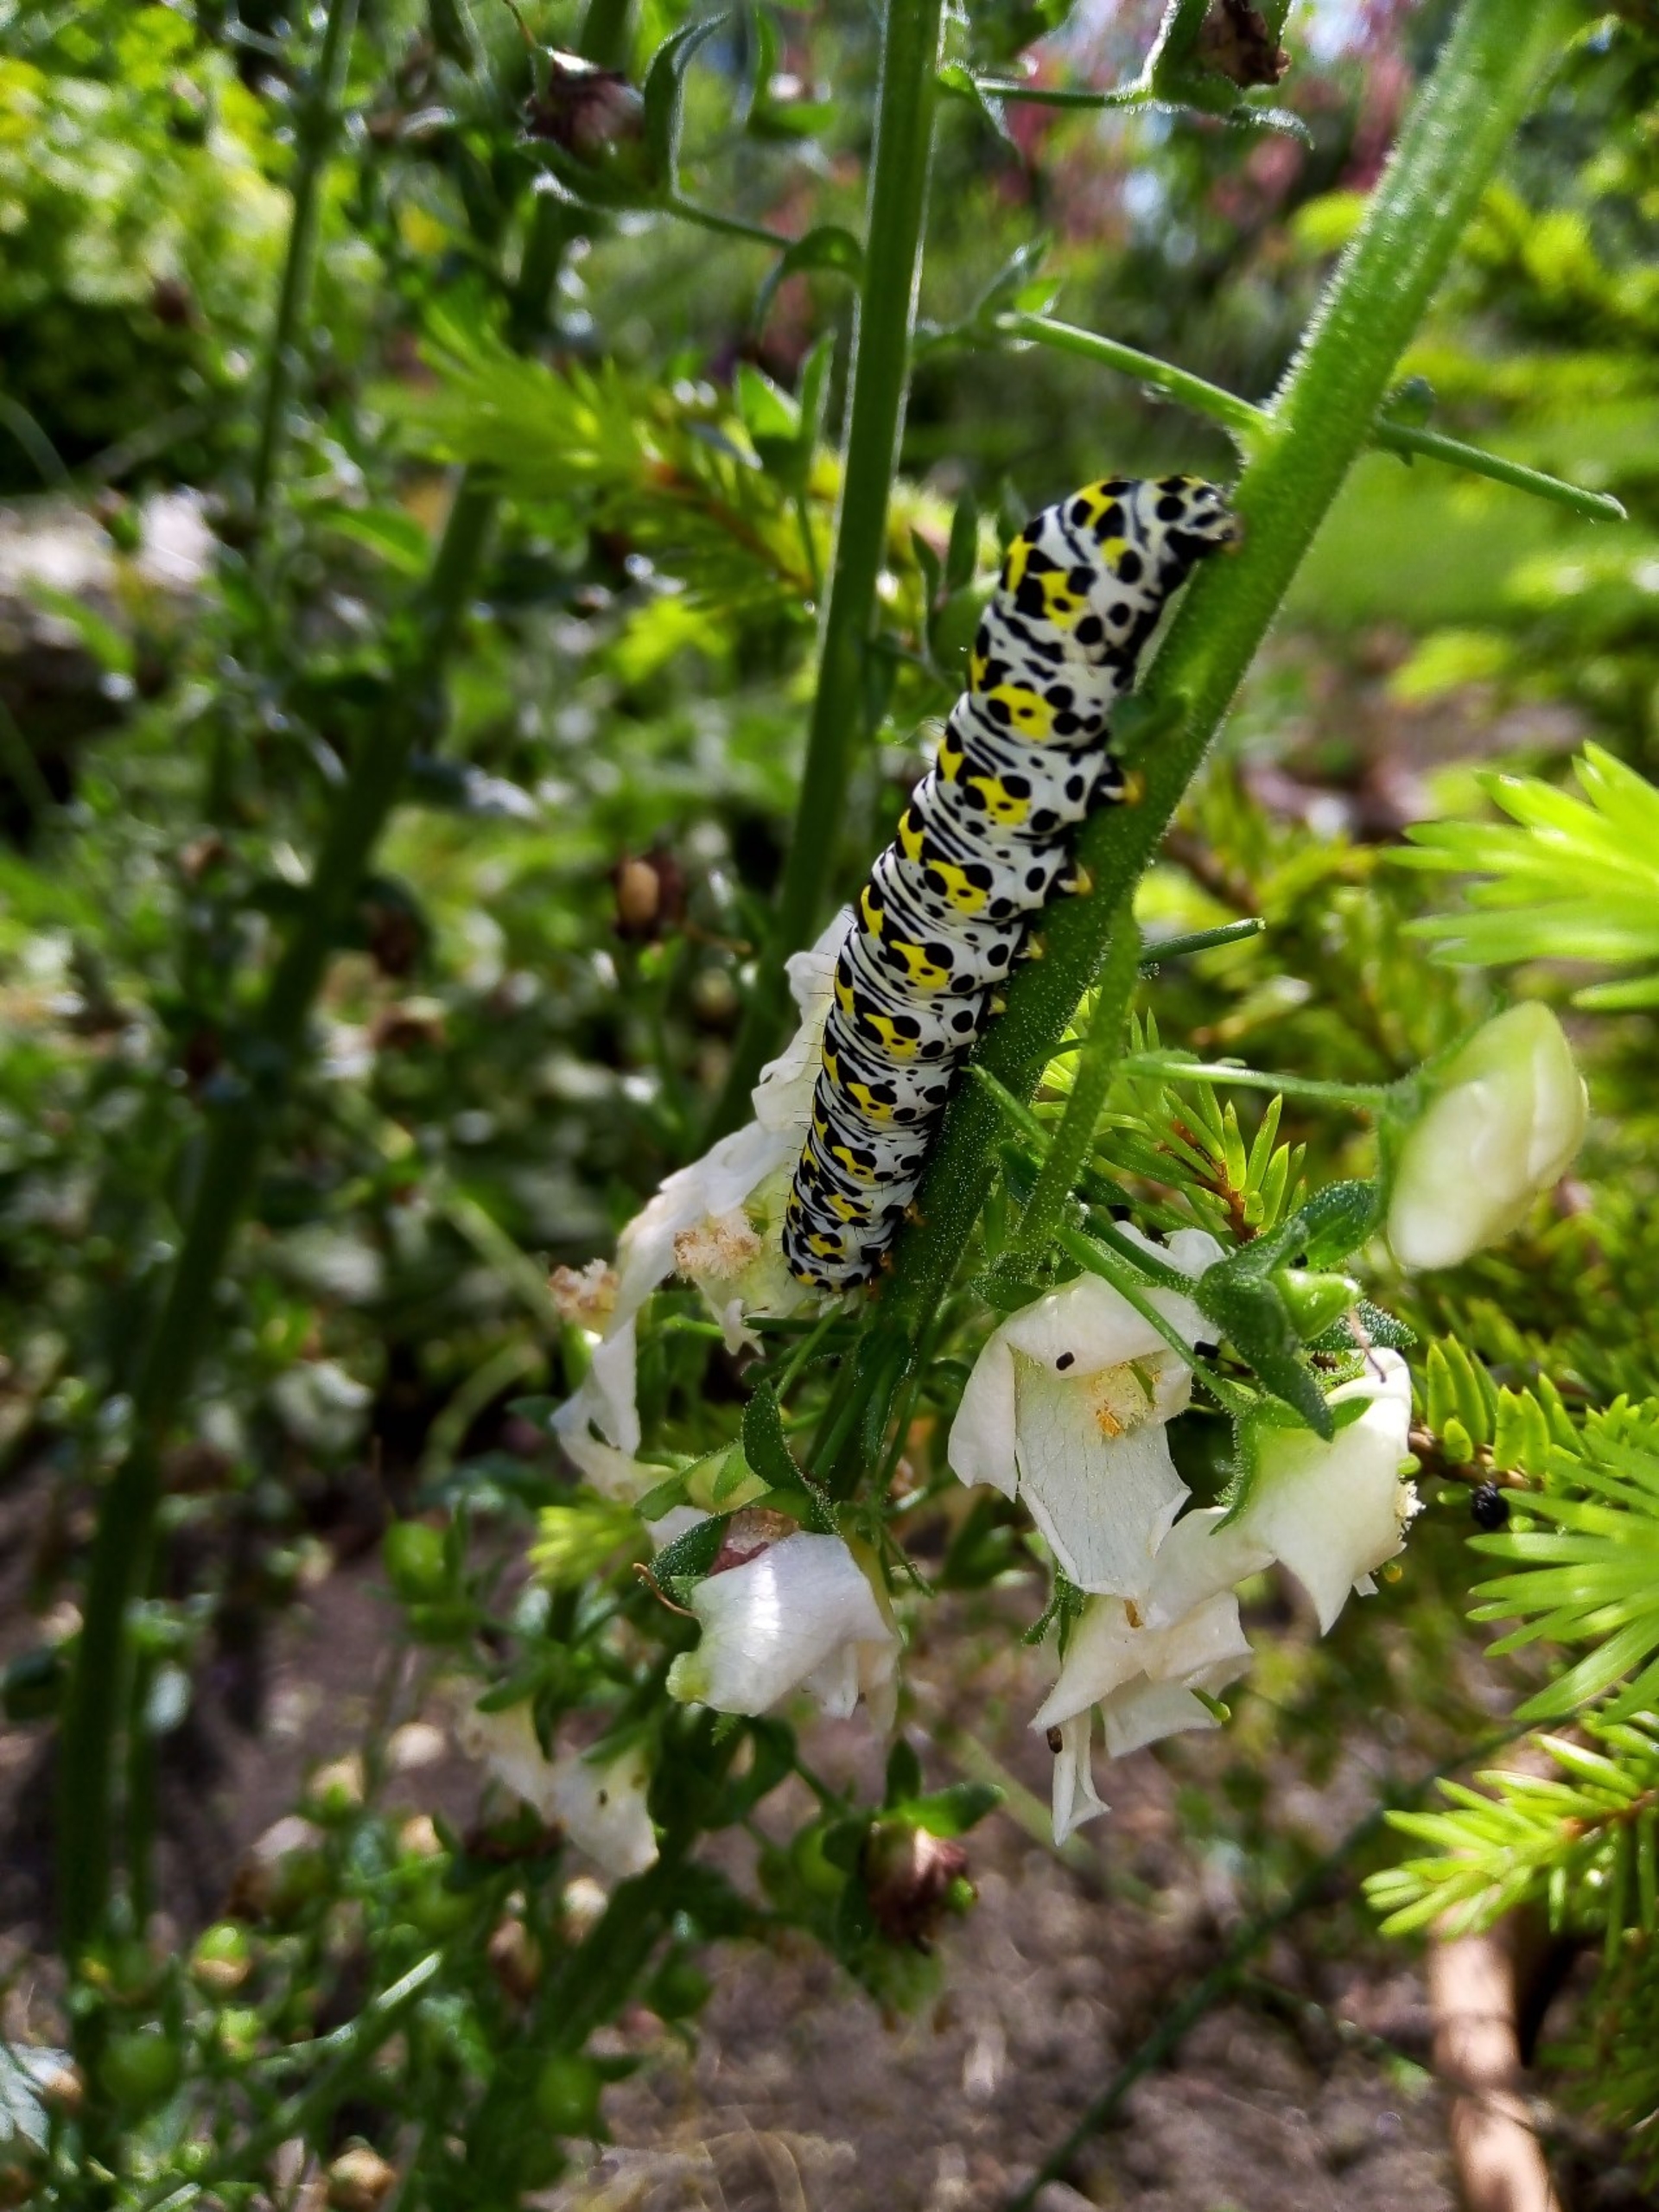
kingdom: Animalia
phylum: Arthropoda
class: Insecta
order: Lepidoptera
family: Noctuidae
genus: Cucullia
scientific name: Cucullia verbasci
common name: Filtbladet kongelys-hætteugle
